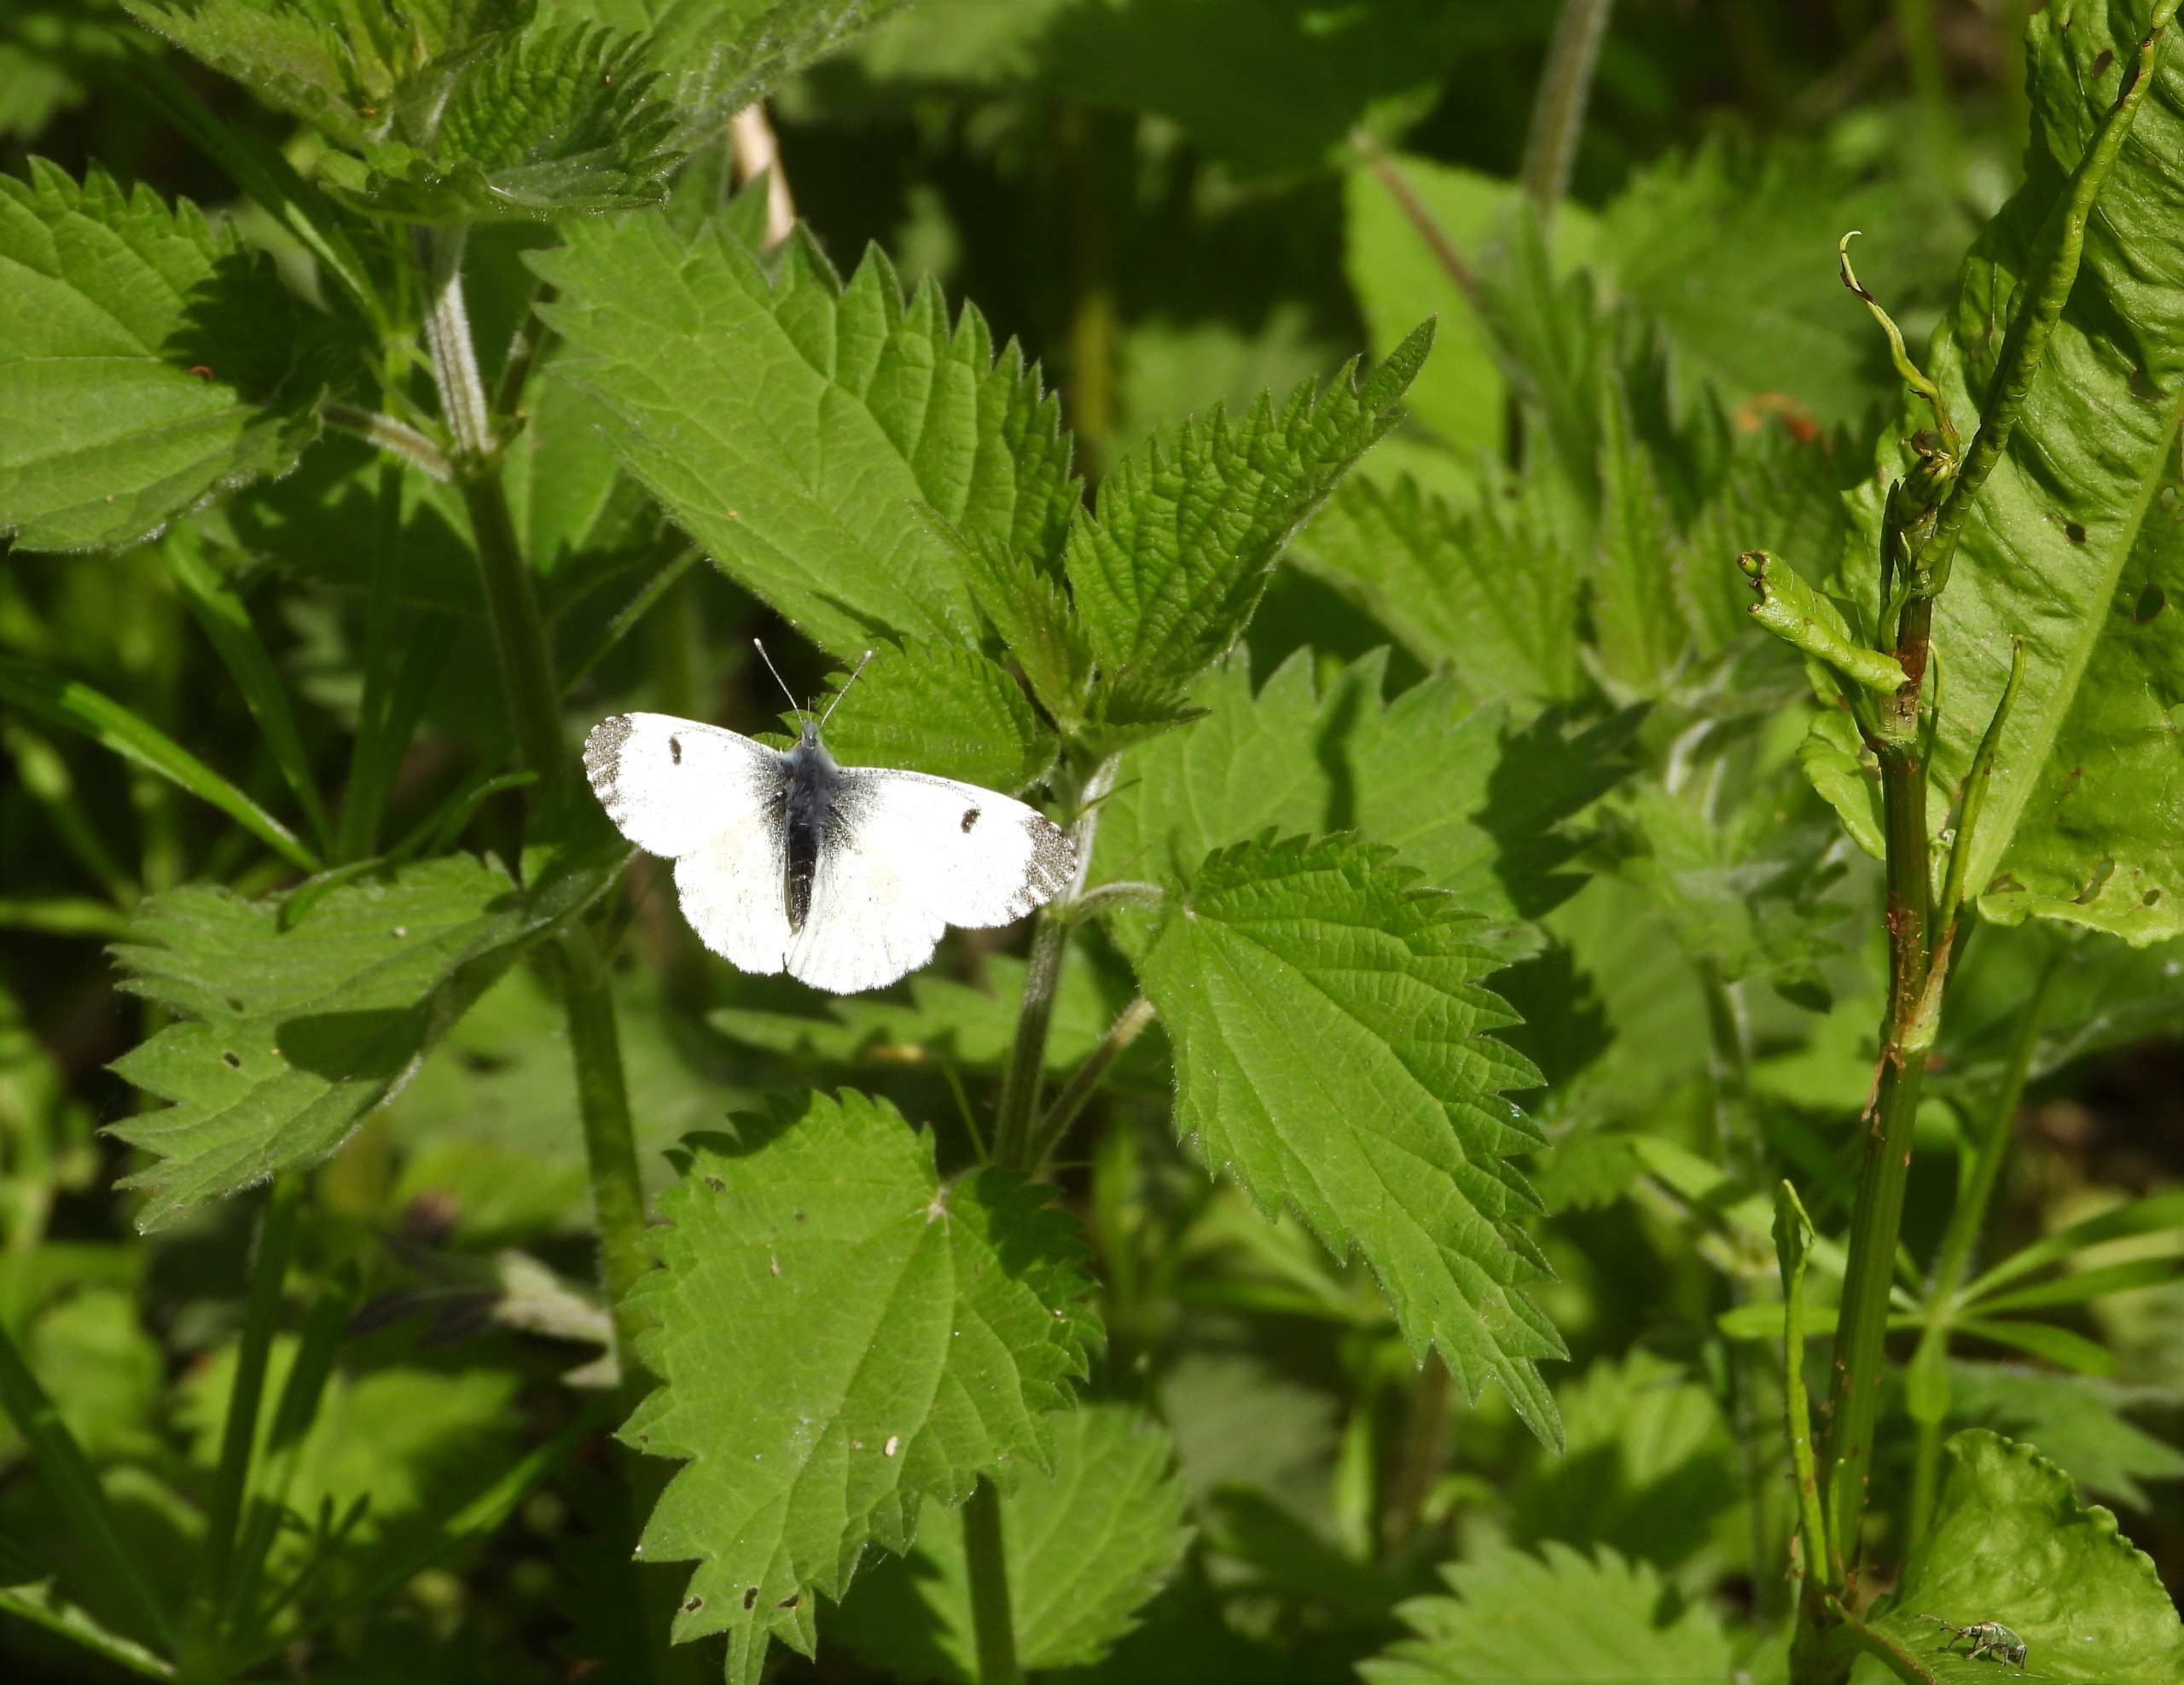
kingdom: Animalia
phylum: Arthropoda
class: Insecta
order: Lepidoptera
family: Pieridae
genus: Anthocharis
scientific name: Anthocharis cardamines
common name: Aurora
